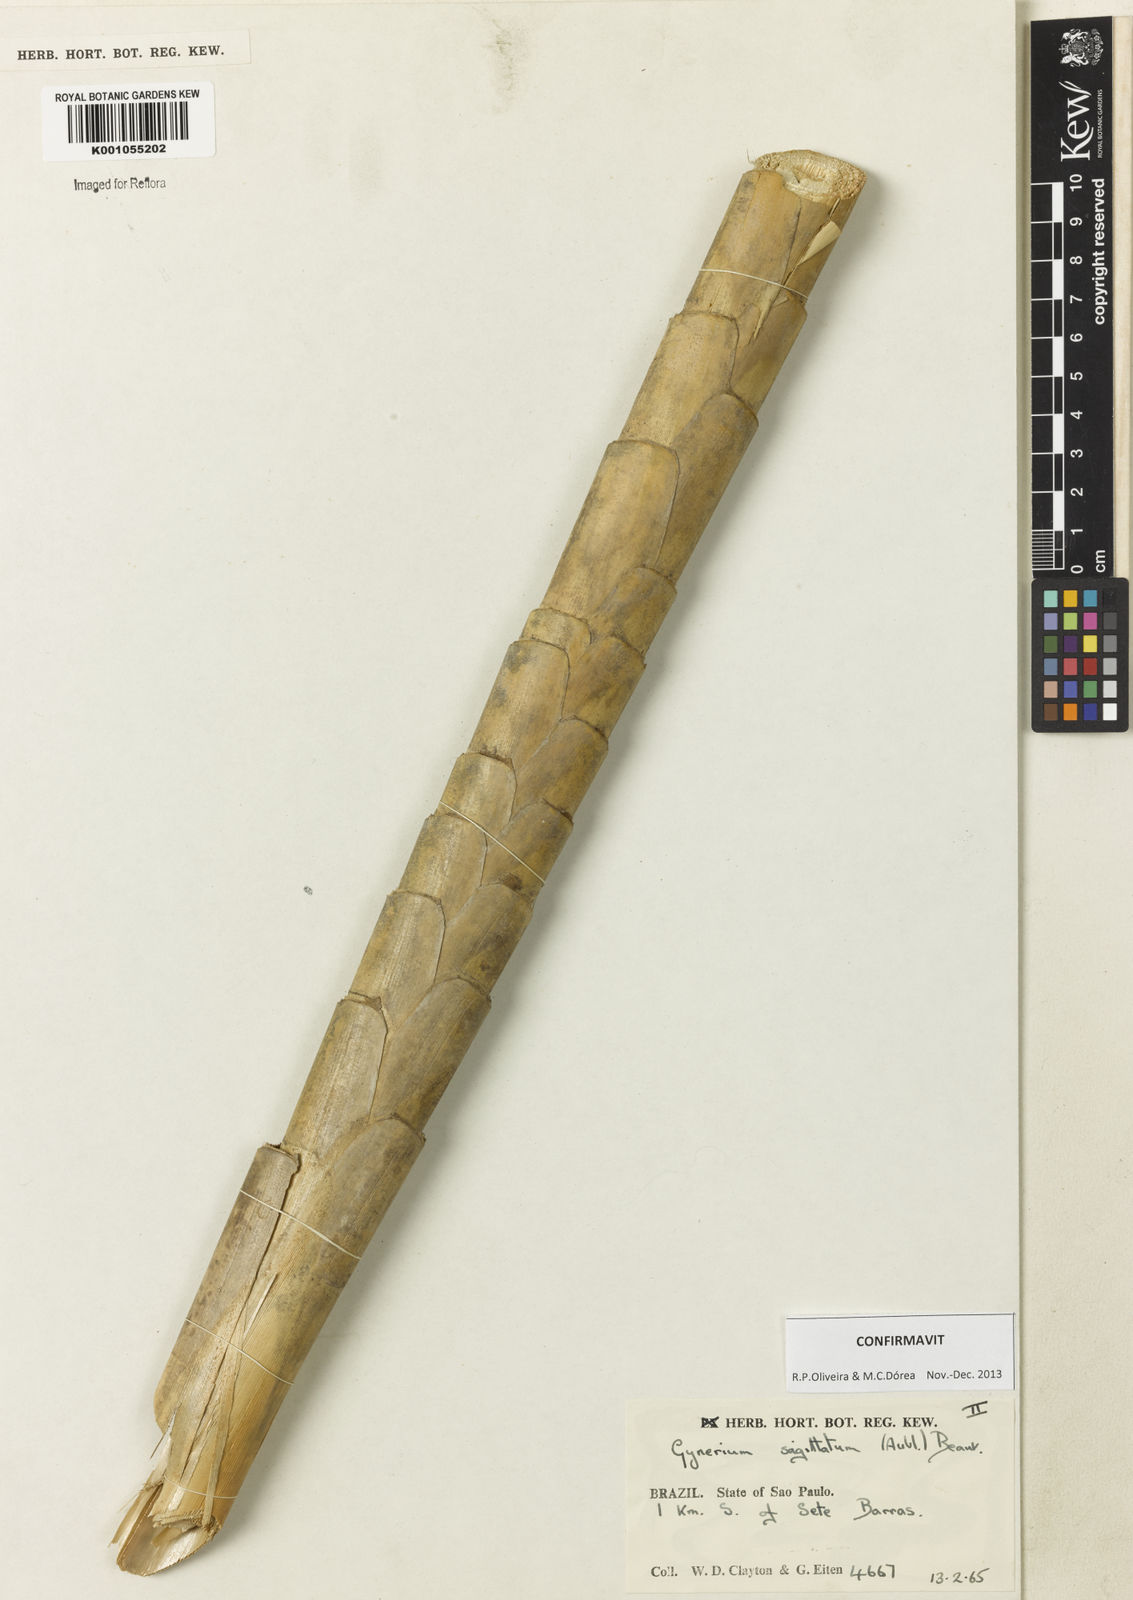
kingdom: Plantae
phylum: Tracheophyta
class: Liliopsida
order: Poales
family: Poaceae
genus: Gynerium
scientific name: Gynerium sagittatum
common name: Wild cane
